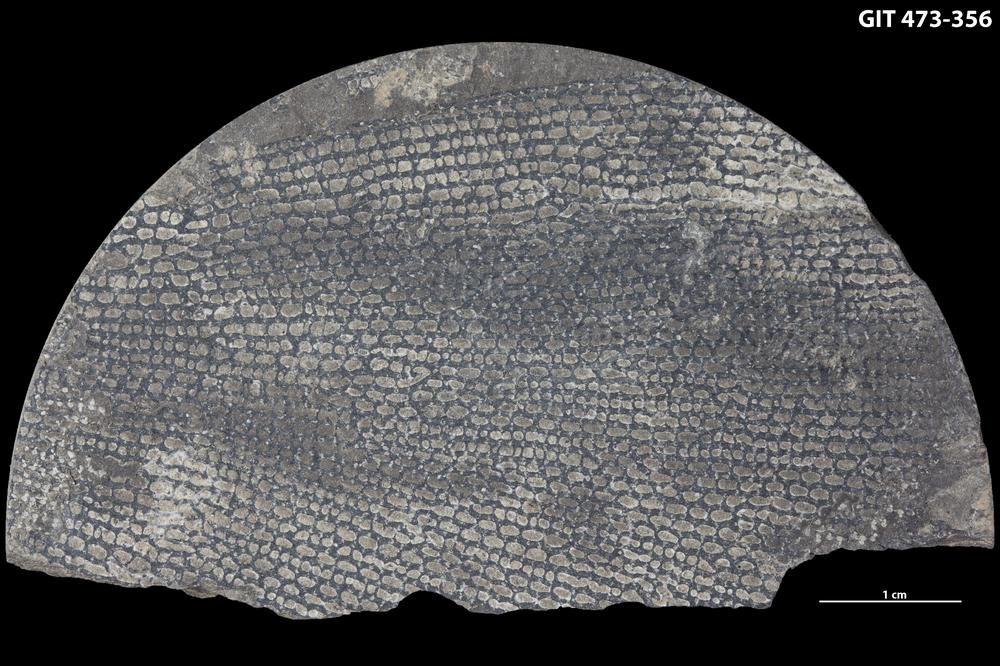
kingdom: Animalia
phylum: Hemichordata
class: Pterobranchia
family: Anisograptidae
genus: Rhabdinopora
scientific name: Rhabdinopora
